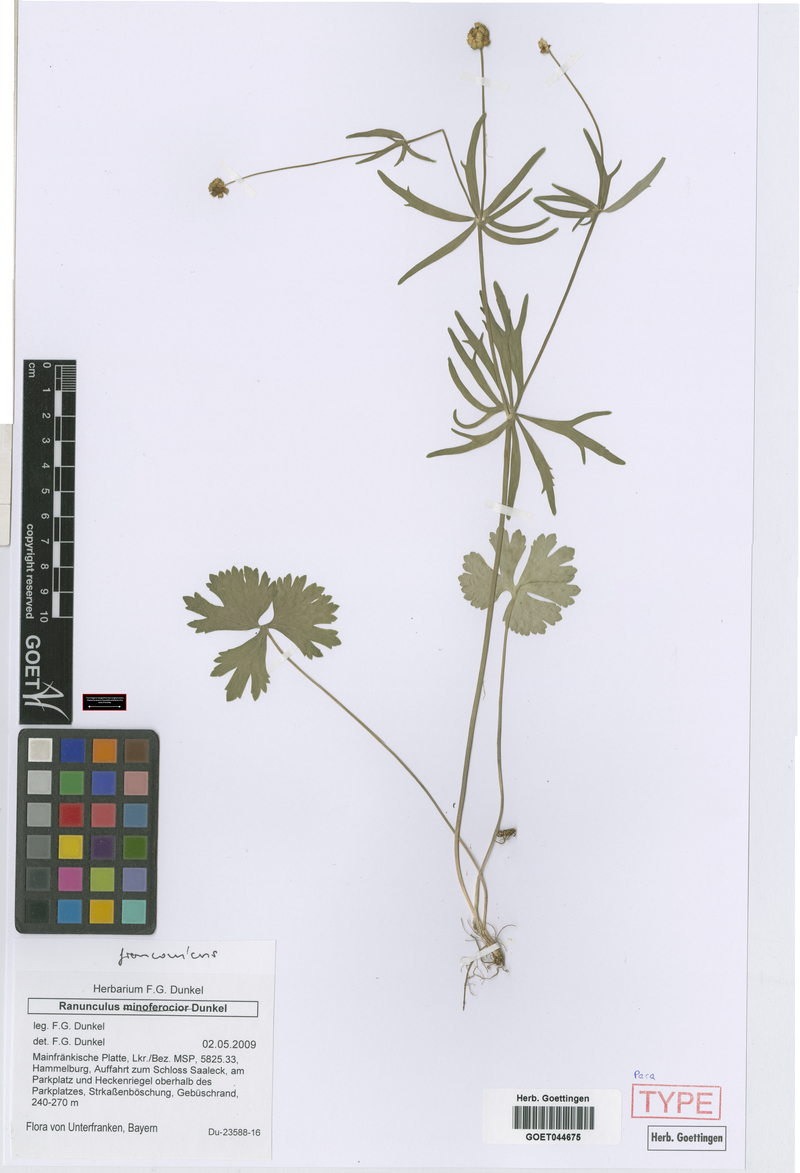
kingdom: Plantae
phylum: Tracheophyta
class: Magnoliopsida
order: Ranunculales
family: Ranunculaceae
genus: Ranunculus
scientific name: Ranunculus franconicus
